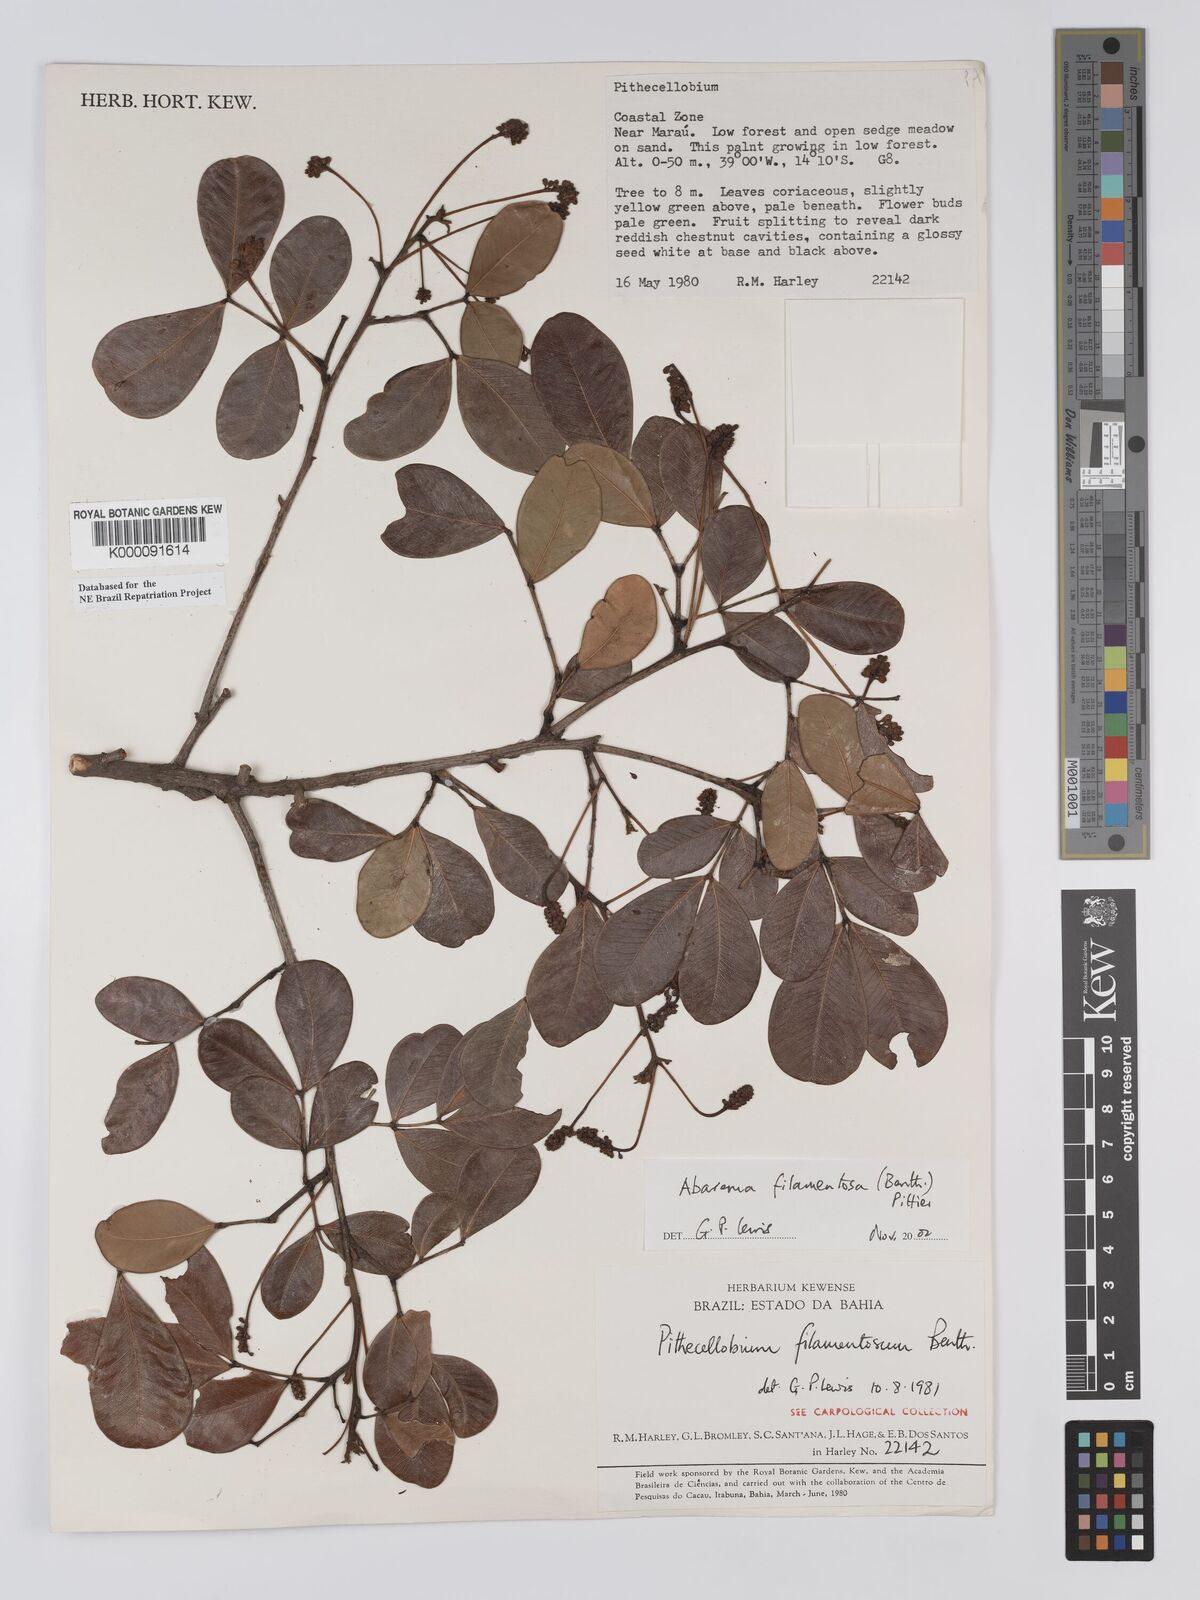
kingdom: Plantae
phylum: Tracheophyta
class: Magnoliopsida
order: Fabales
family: Fabaceae
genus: Jupunba
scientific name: Jupunba filamentosa
